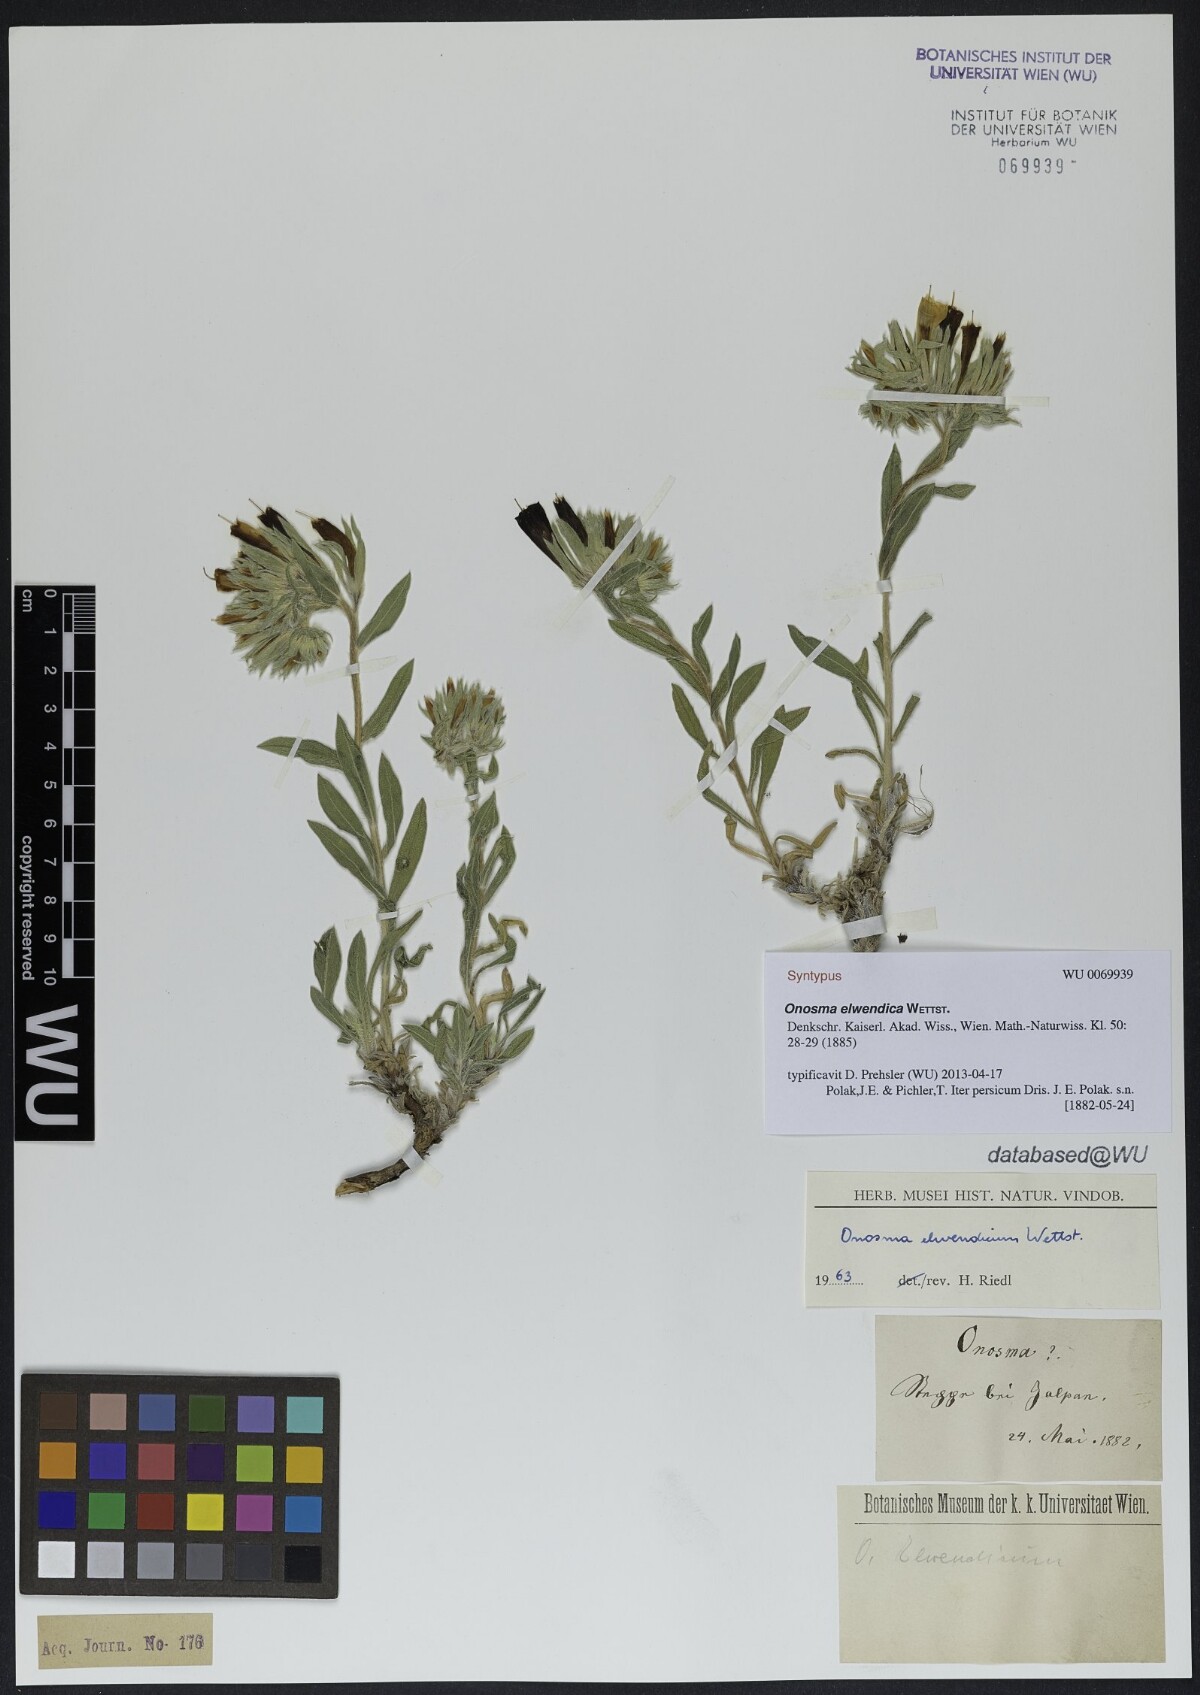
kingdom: Plantae
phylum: Tracheophyta
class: Magnoliopsida
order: Boraginales
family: Boraginaceae
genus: Onosma
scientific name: Onosma elwendica
